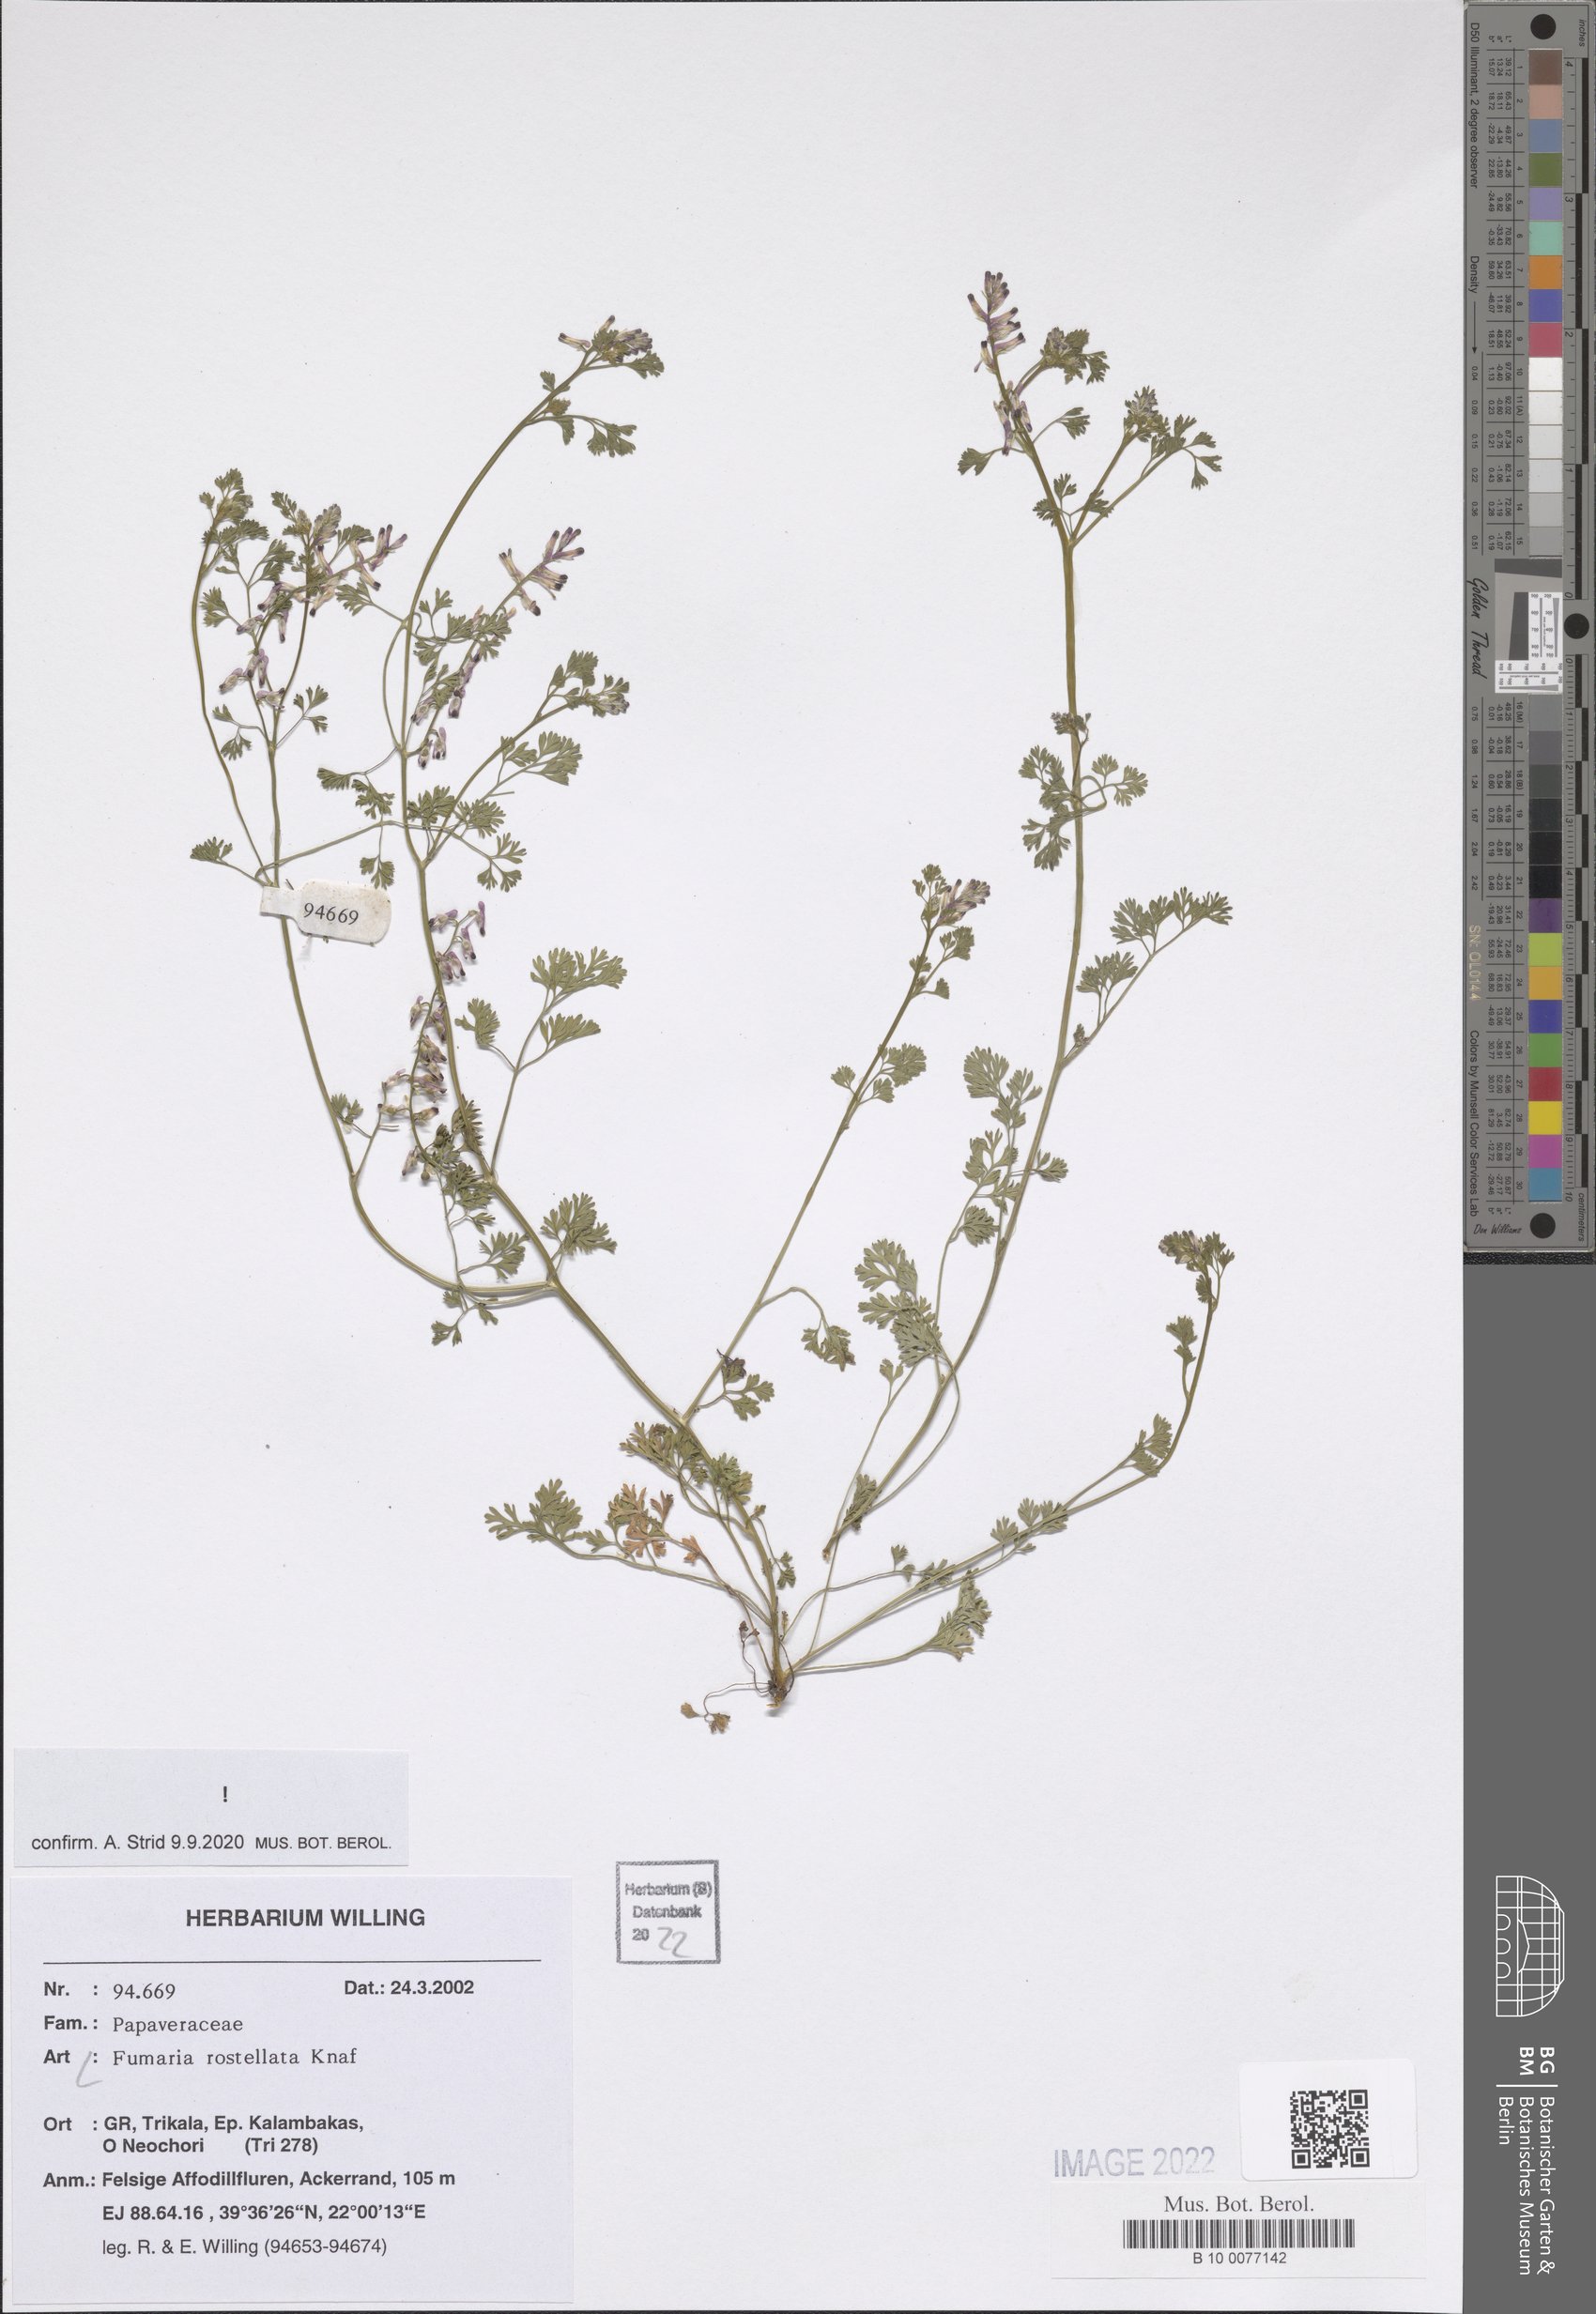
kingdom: Plantae
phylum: Tracheophyta
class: Magnoliopsida
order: Ranunculales
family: Papaveraceae
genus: Fumaria
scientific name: Fumaria rostellata
